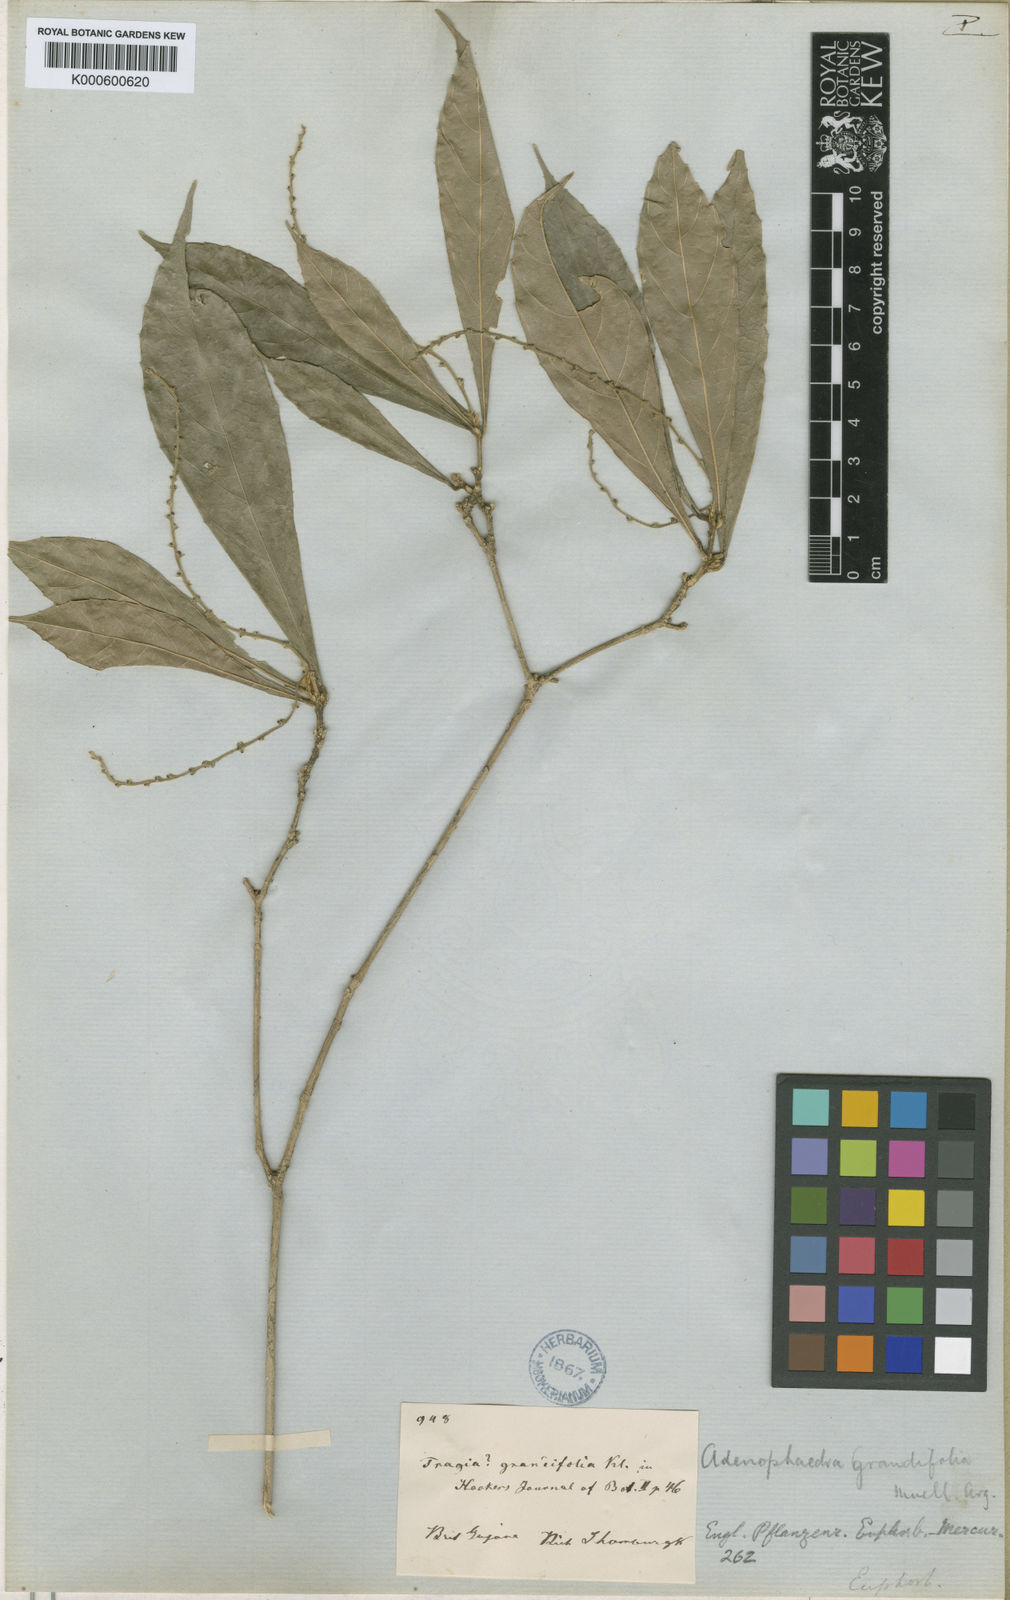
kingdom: Plantae
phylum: Tracheophyta
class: Magnoliopsida
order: Malpighiales
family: Euphorbiaceae
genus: Adenophaedra
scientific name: Adenophaedra
